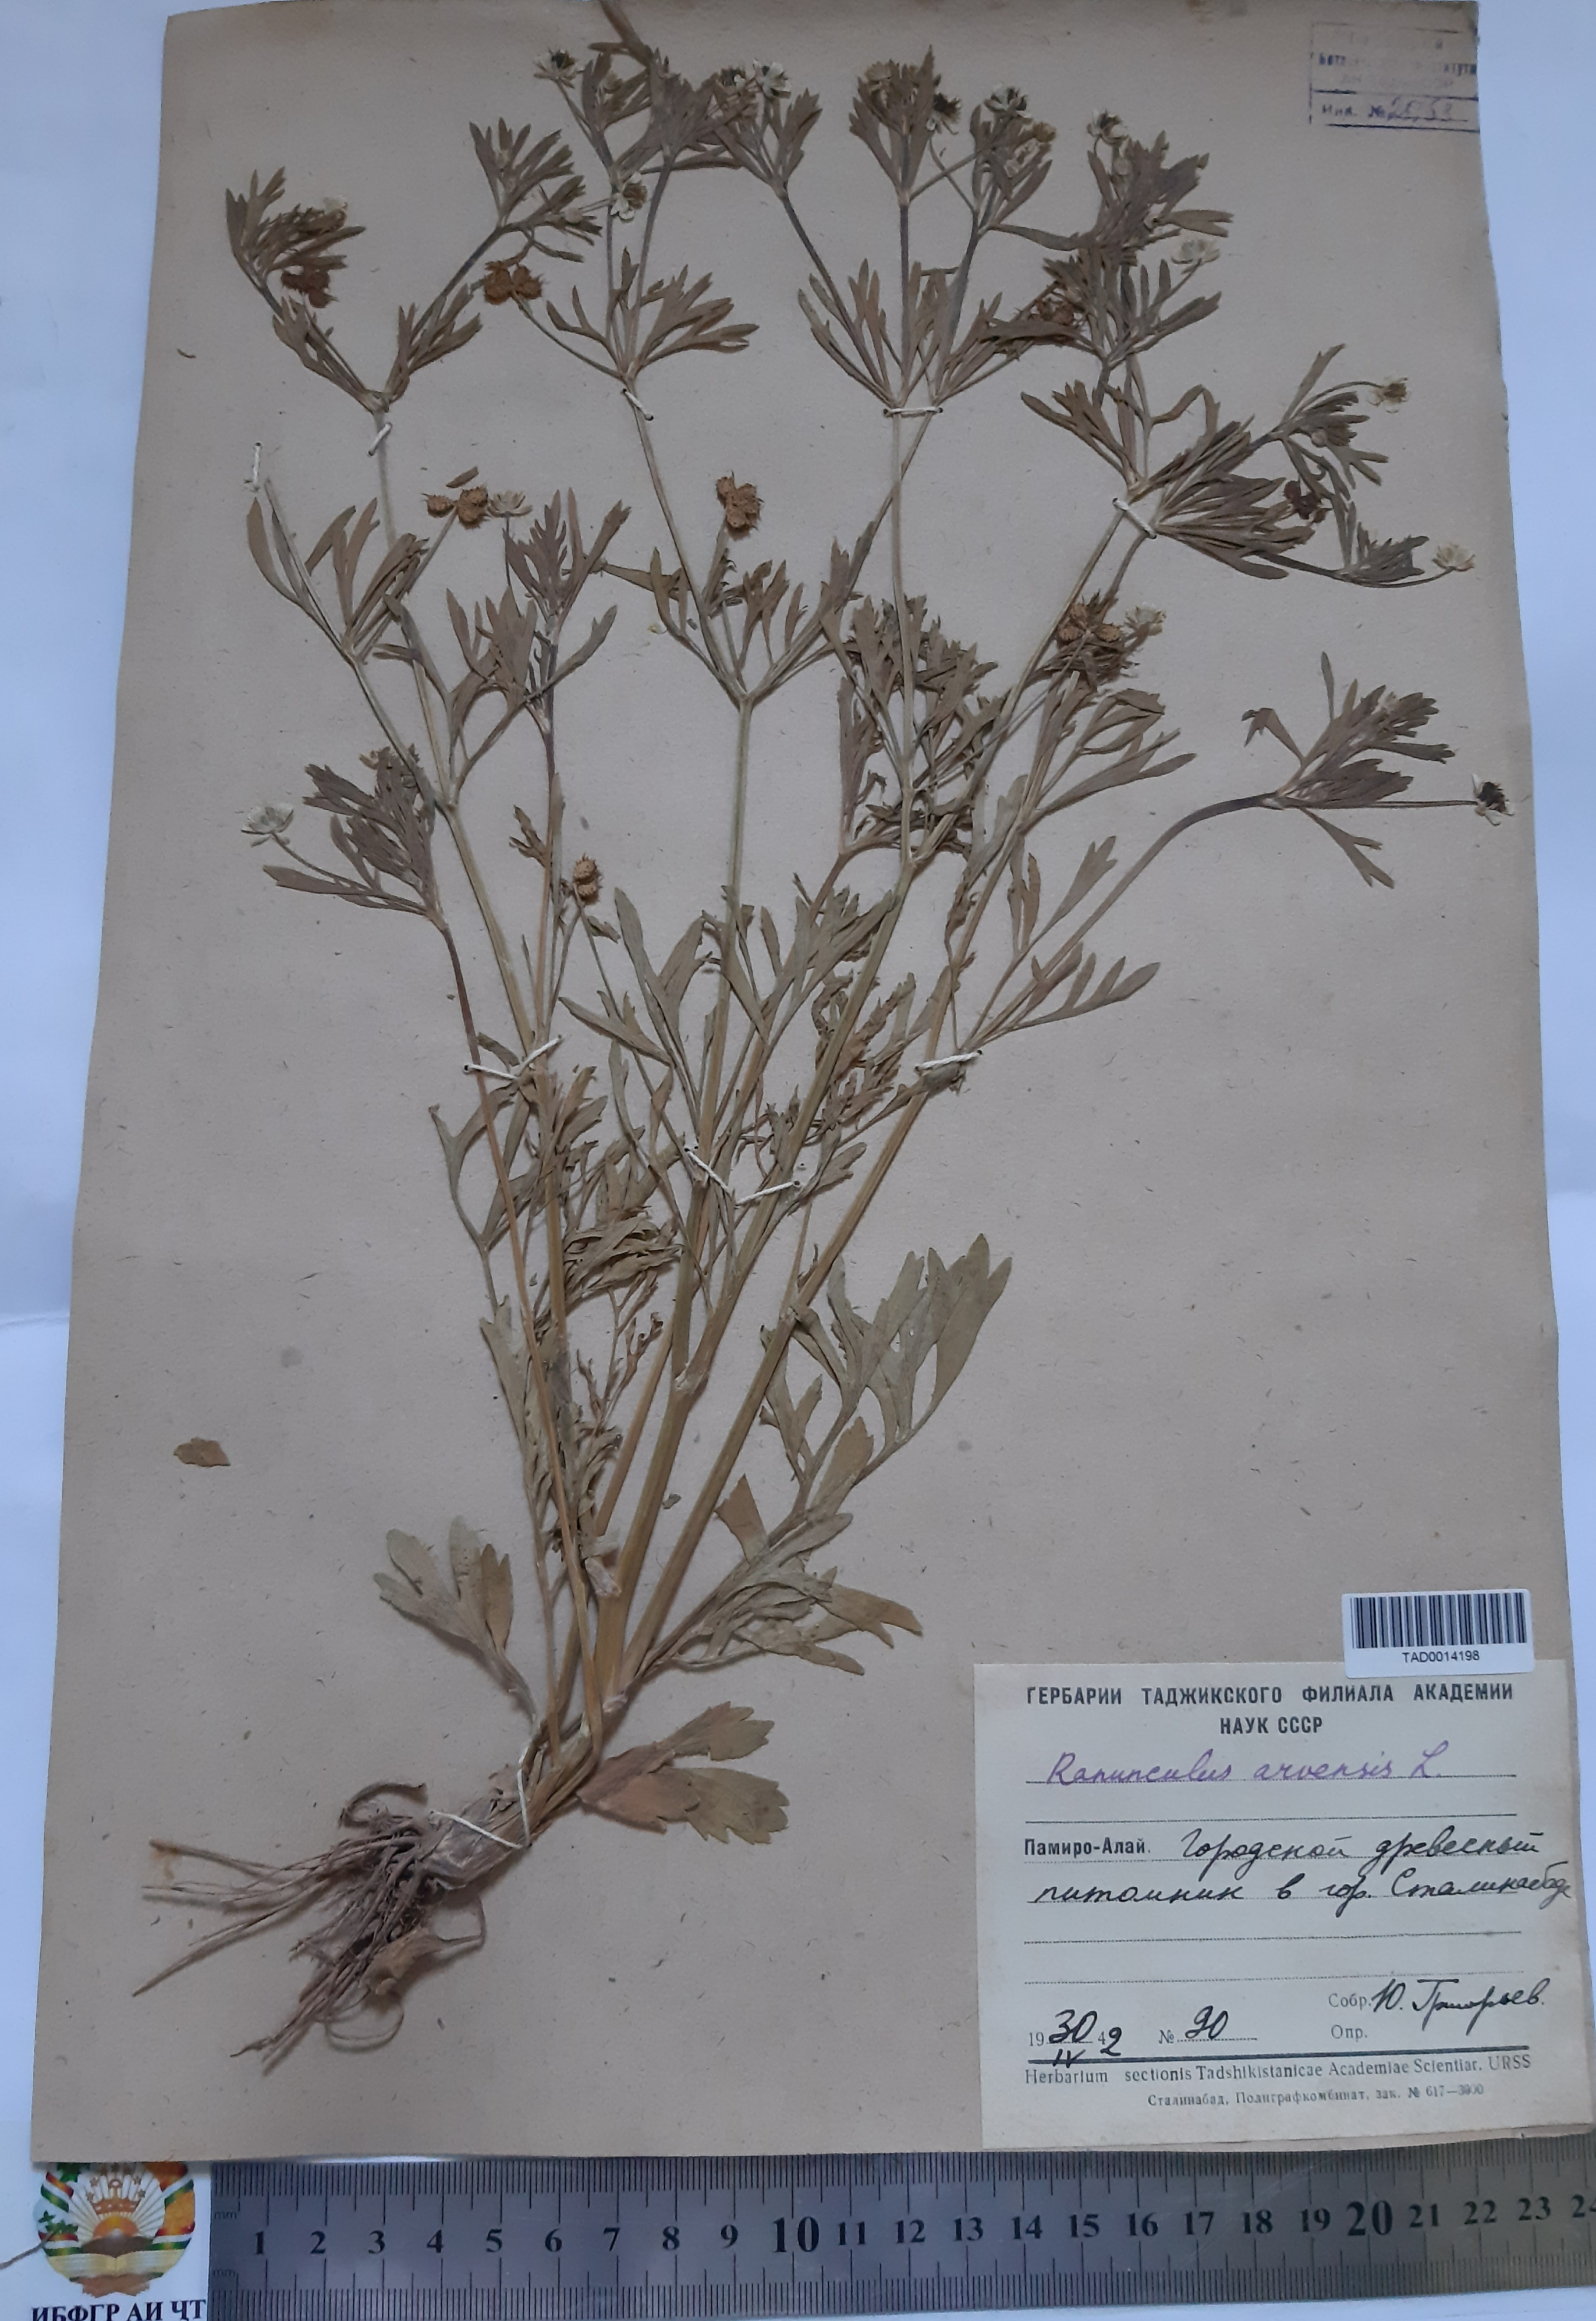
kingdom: Plantae
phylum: Tracheophyta
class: Magnoliopsida
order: Ranunculales
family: Ranunculaceae
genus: Ranunculus
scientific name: Ranunculus arvensis
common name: Corn buttercup
